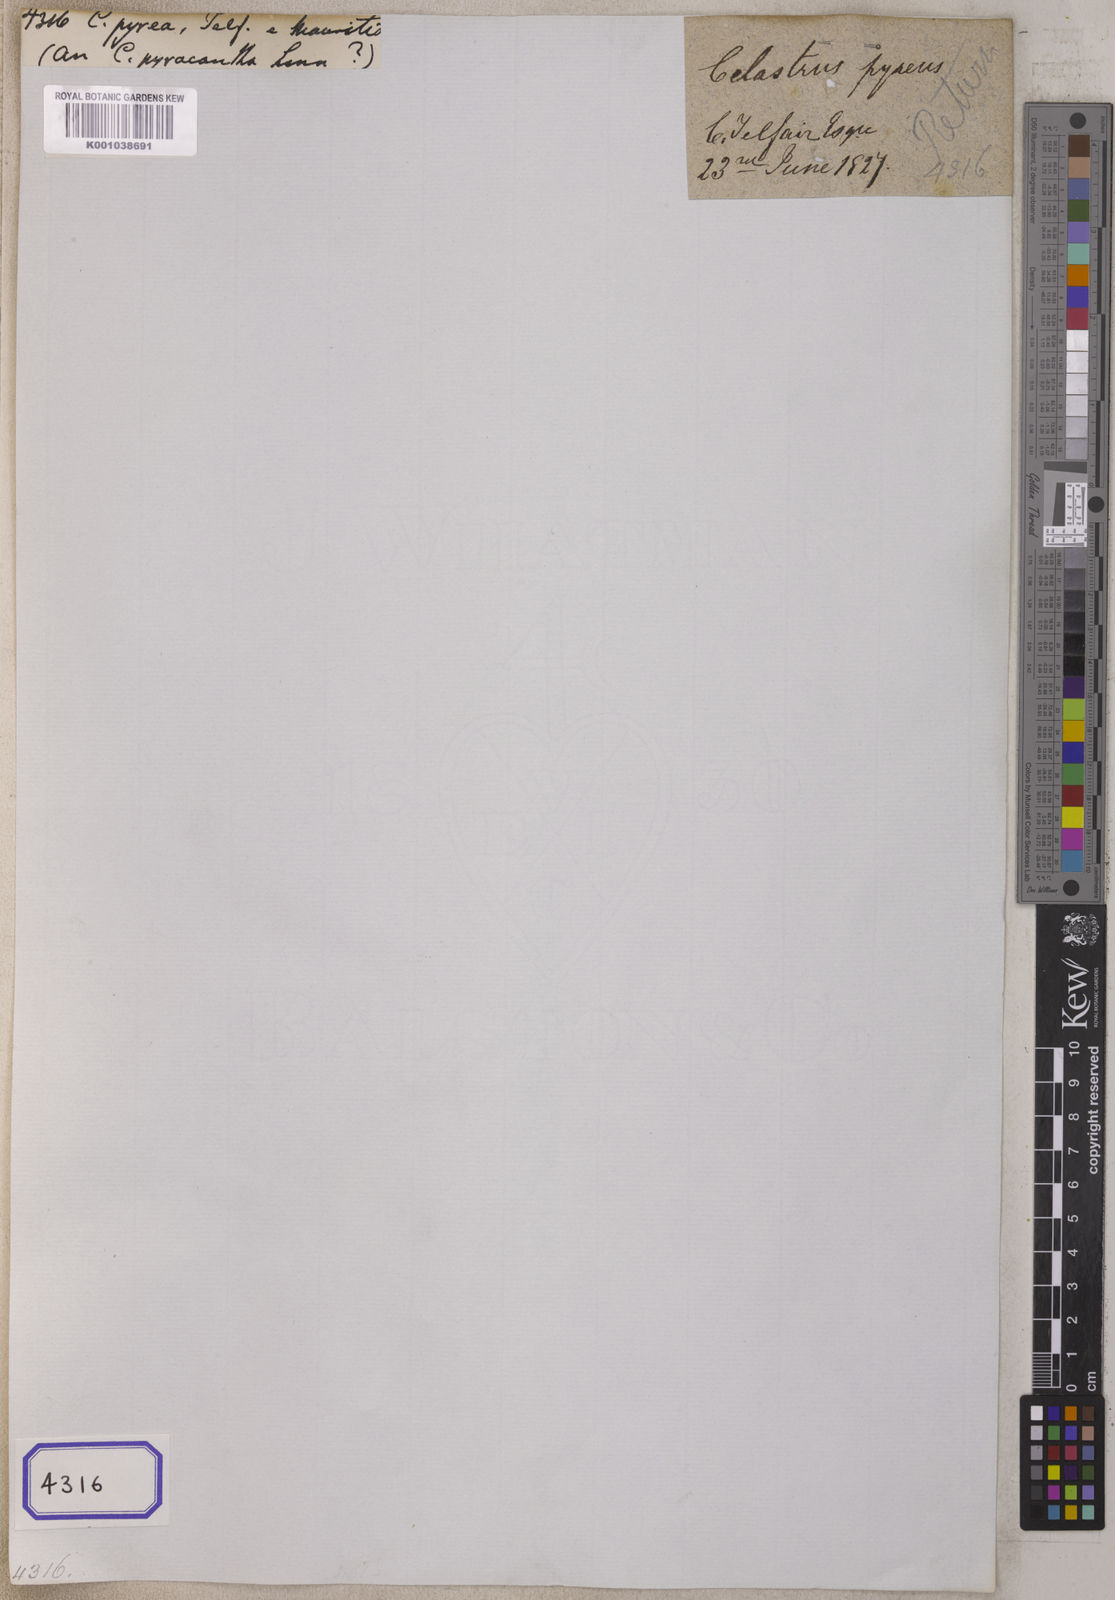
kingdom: Plantae
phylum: Tracheophyta
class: Magnoliopsida
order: Celastrales
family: Celastraceae
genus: Gymnosporia
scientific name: Gymnosporia pyria
